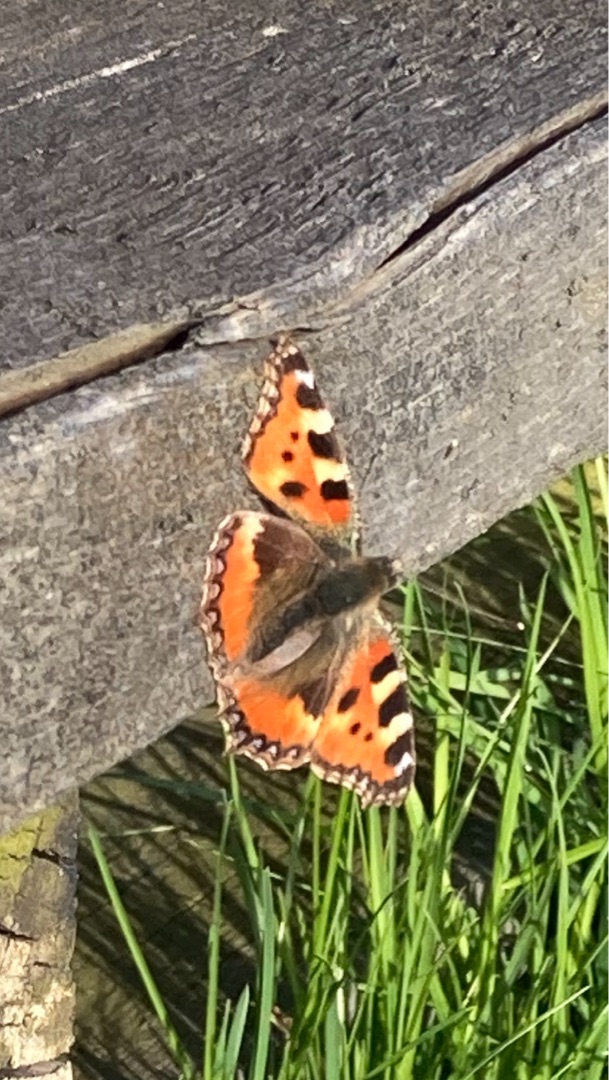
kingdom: Animalia
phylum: Arthropoda
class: Insecta
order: Lepidoptera
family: Nymphalidae
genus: Aglais
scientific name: Aglais urticae
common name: Nældens takvinge
